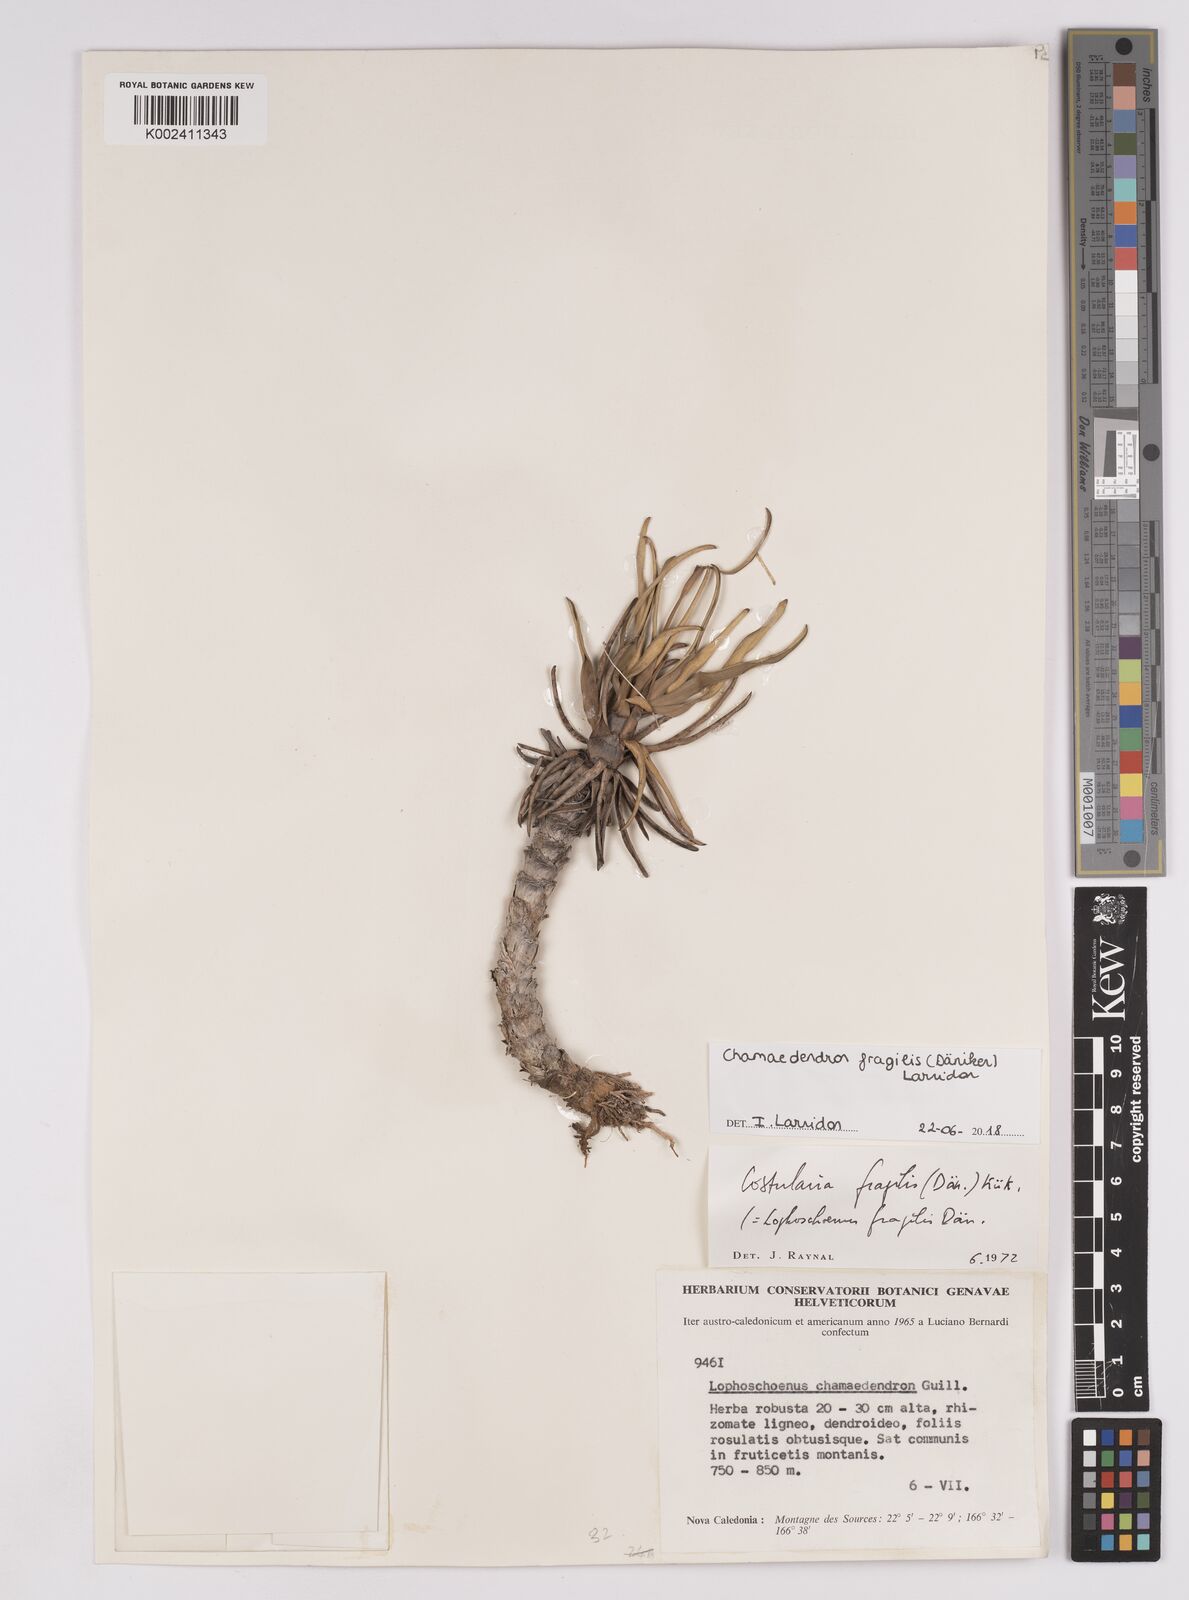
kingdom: Plantae
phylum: Tracheophyta
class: Liliopsida
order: Poales
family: Cyperaceae
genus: Chamaedendron
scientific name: Chamaedendron fragilis
